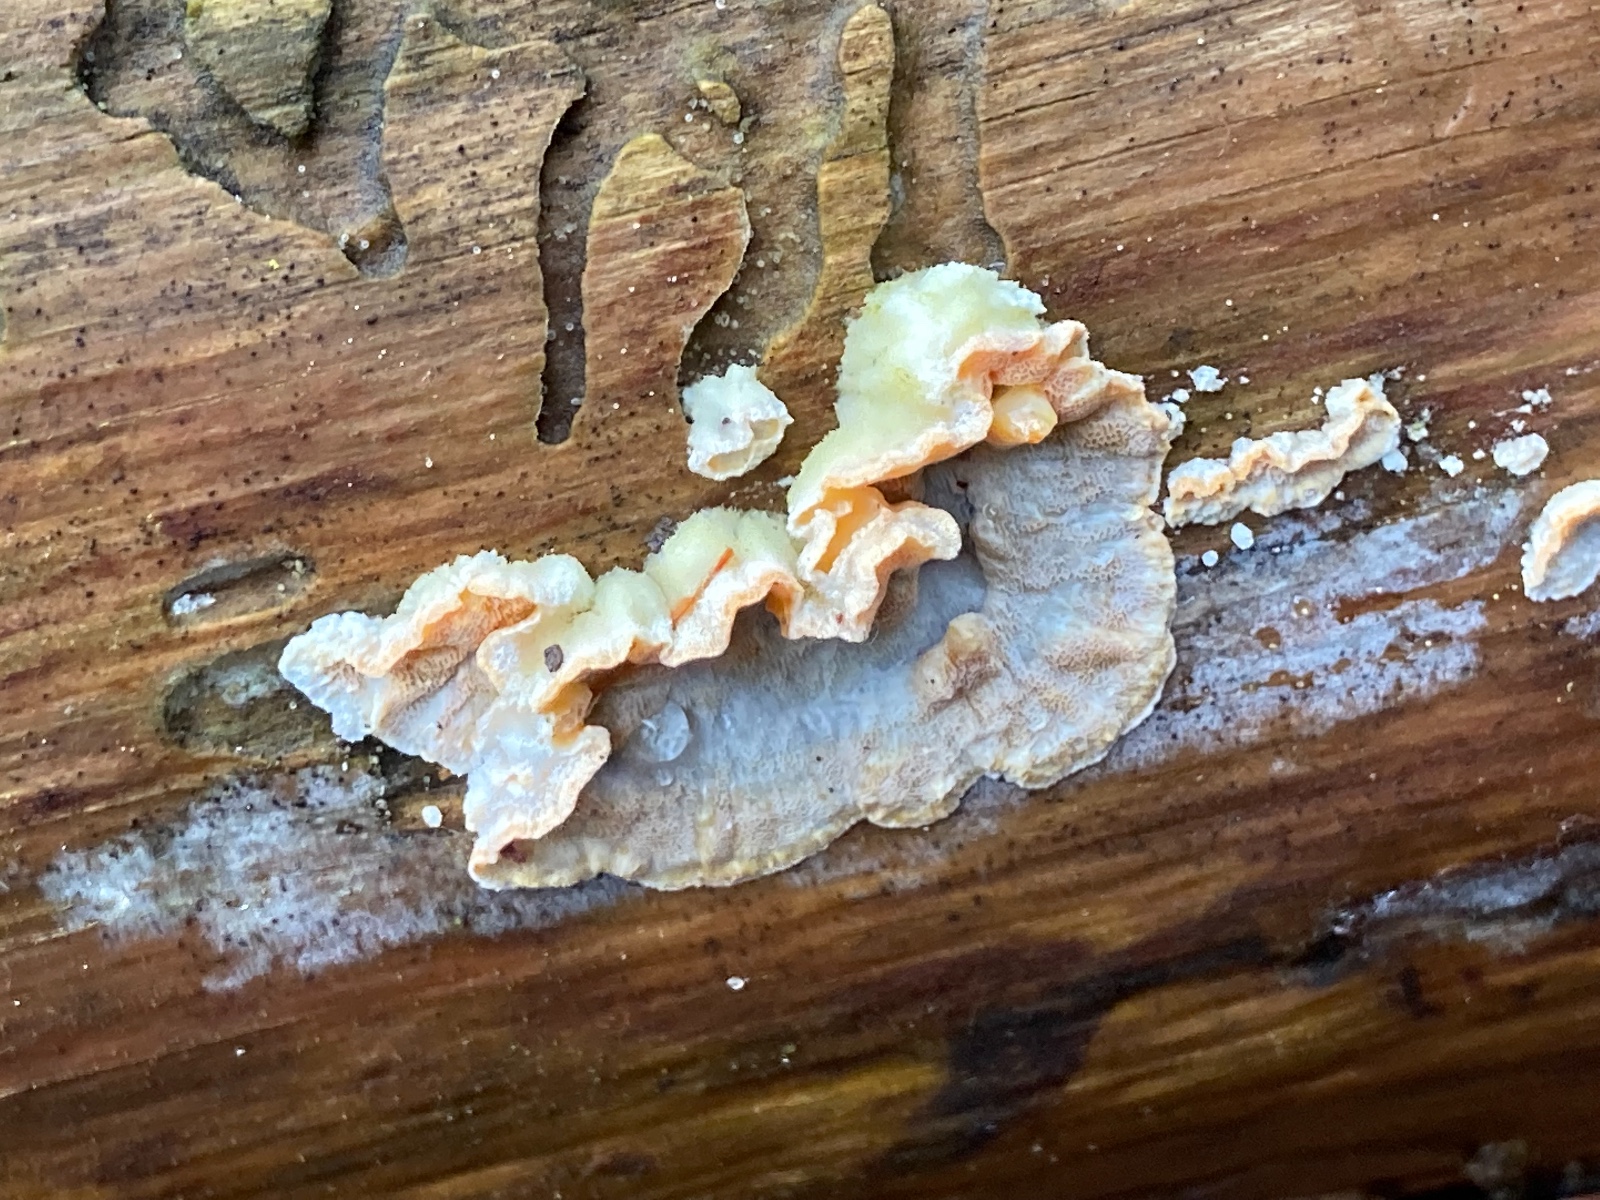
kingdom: Fungi
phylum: Basidiomycota
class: Agaricomycetes
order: Polyporales
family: Incrustoporiaceae
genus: Skeletocutis
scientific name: Skeletocutis amorpha
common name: orange krystalporesvamp
